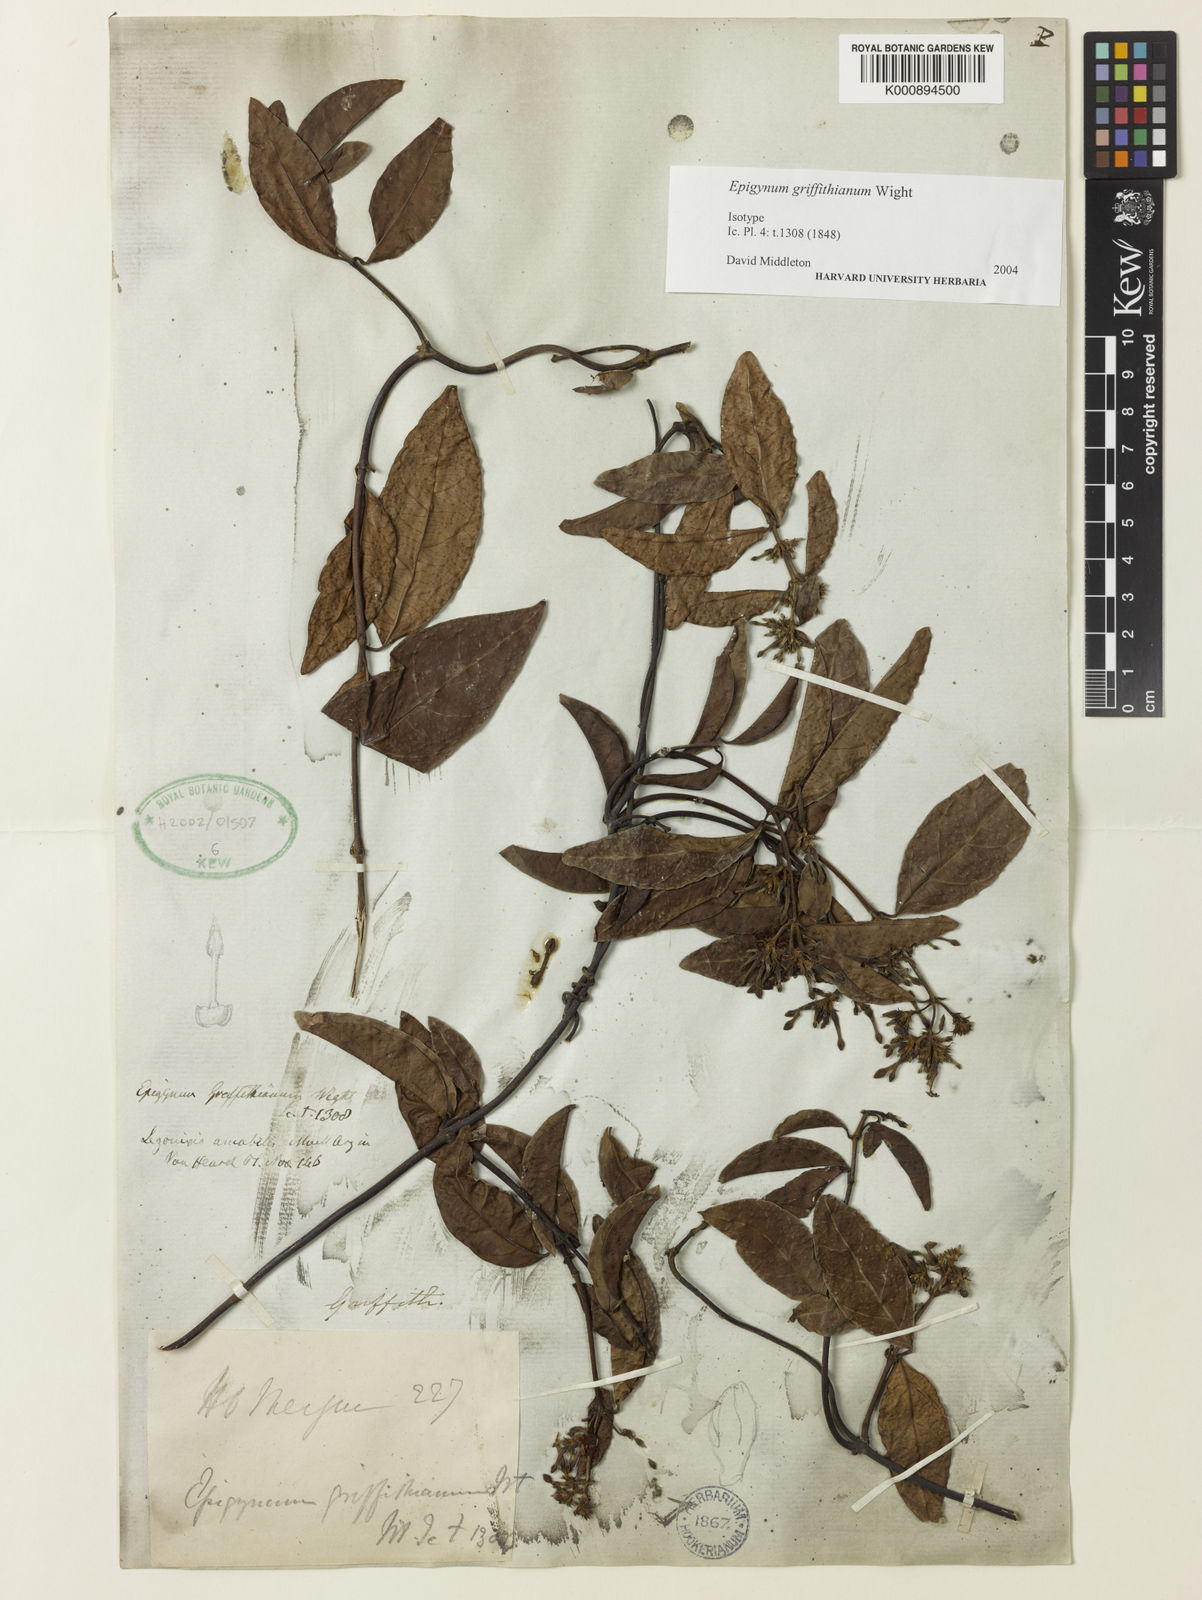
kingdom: Plantae
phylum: Tracheophyta
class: Magnoliopsida
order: Gentianales
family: Apocynaceae
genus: Epigynum
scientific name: Epigynum griffithianum
